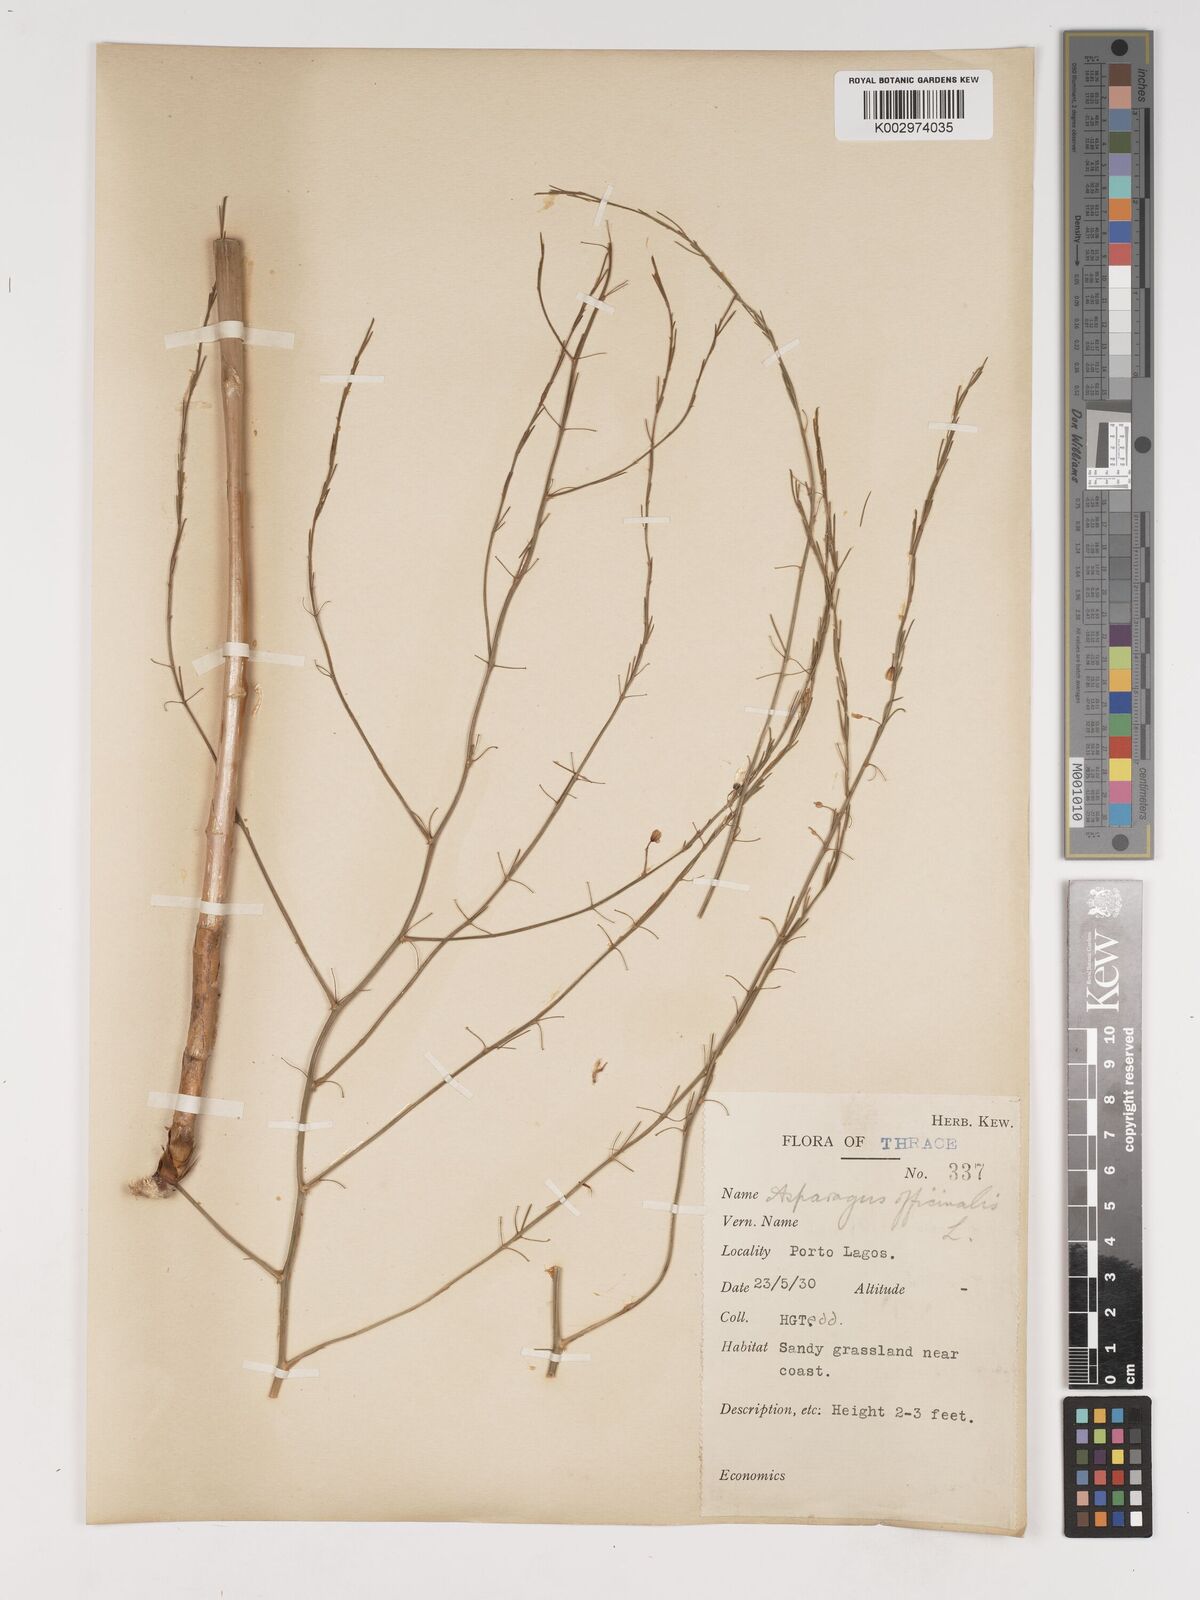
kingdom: Plantae
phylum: Tracheophyta
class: Liliopsida
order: Asparagales
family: Asparagaceae
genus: Asparagus
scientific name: Asparagus officinalis
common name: Garden asparagus
